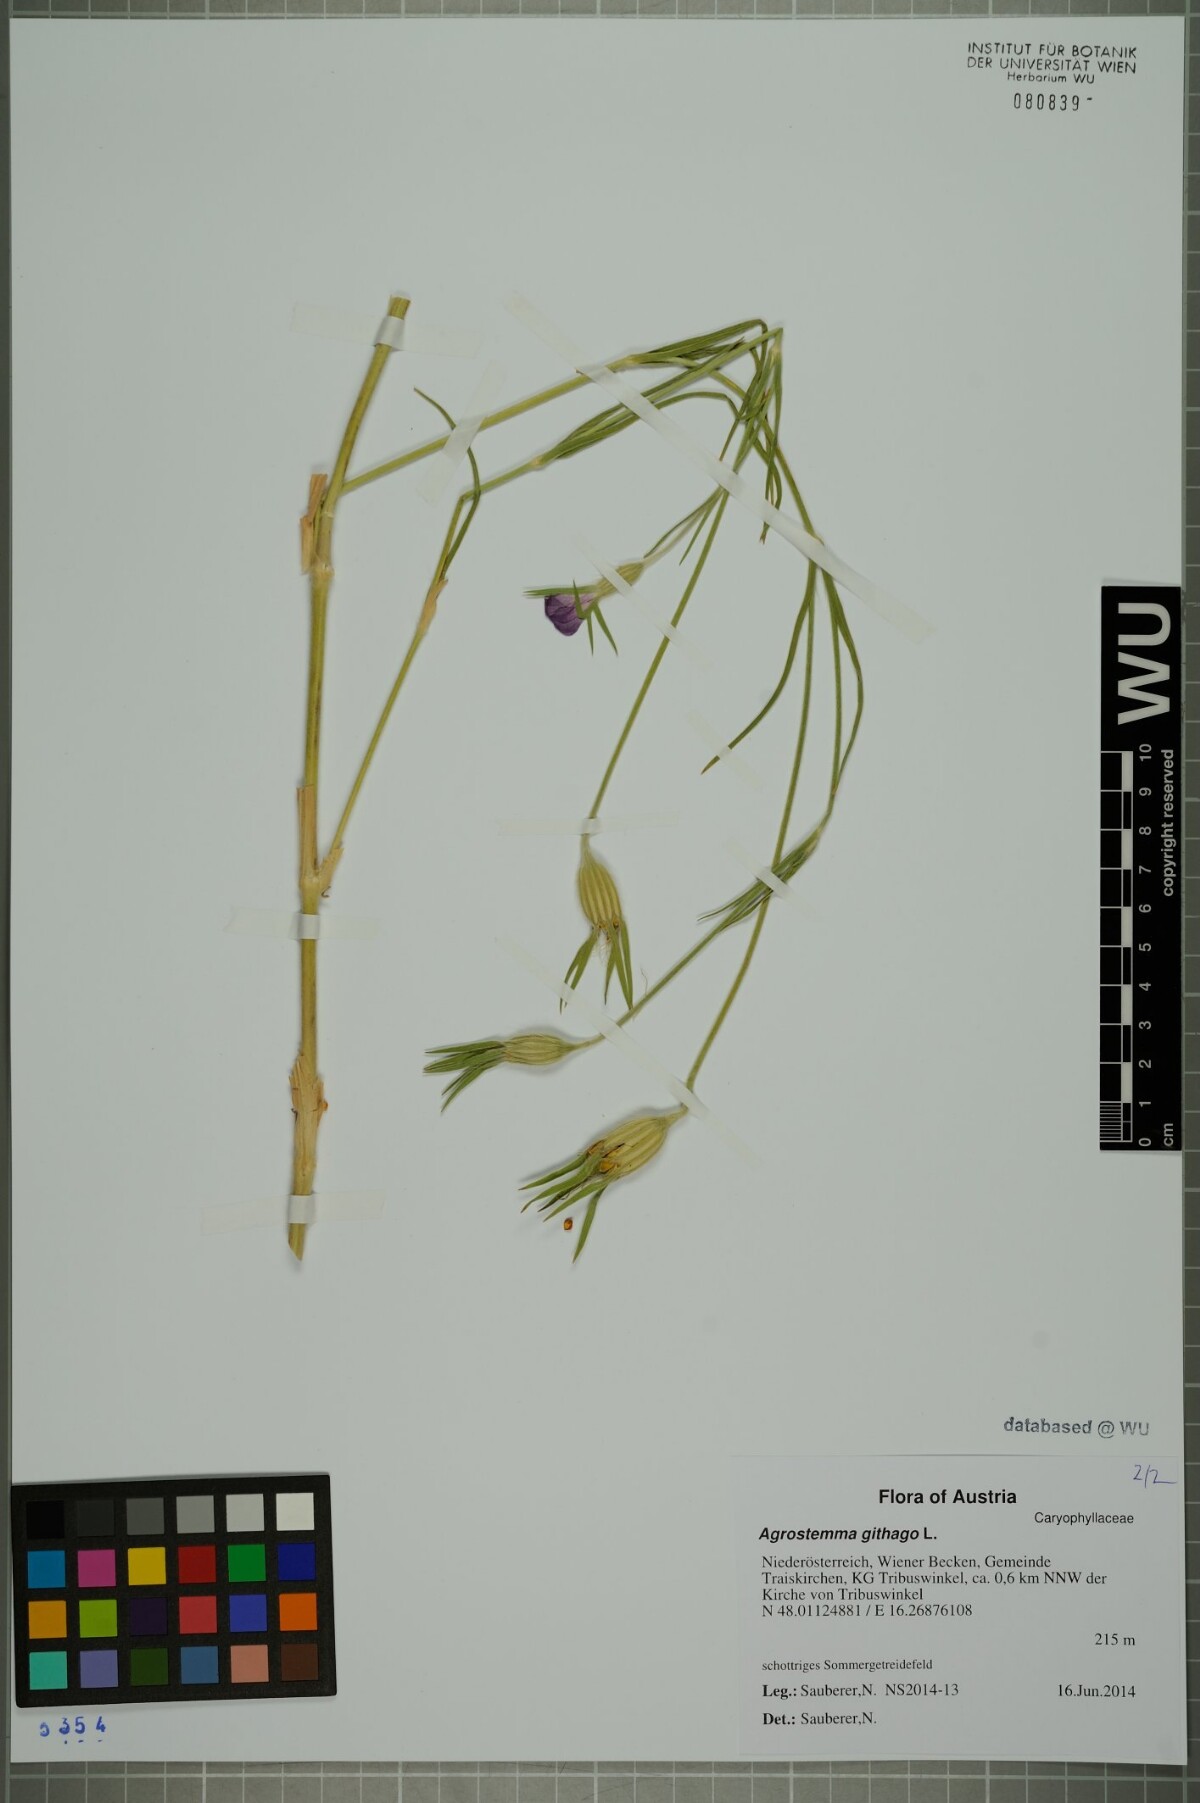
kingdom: Plantae
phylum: Tracheophyta
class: Magnoliopsida
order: Caryophyllales
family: Caryophyllaceae
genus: Agrostemma
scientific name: Agrostemma githago
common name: Common corncockle
